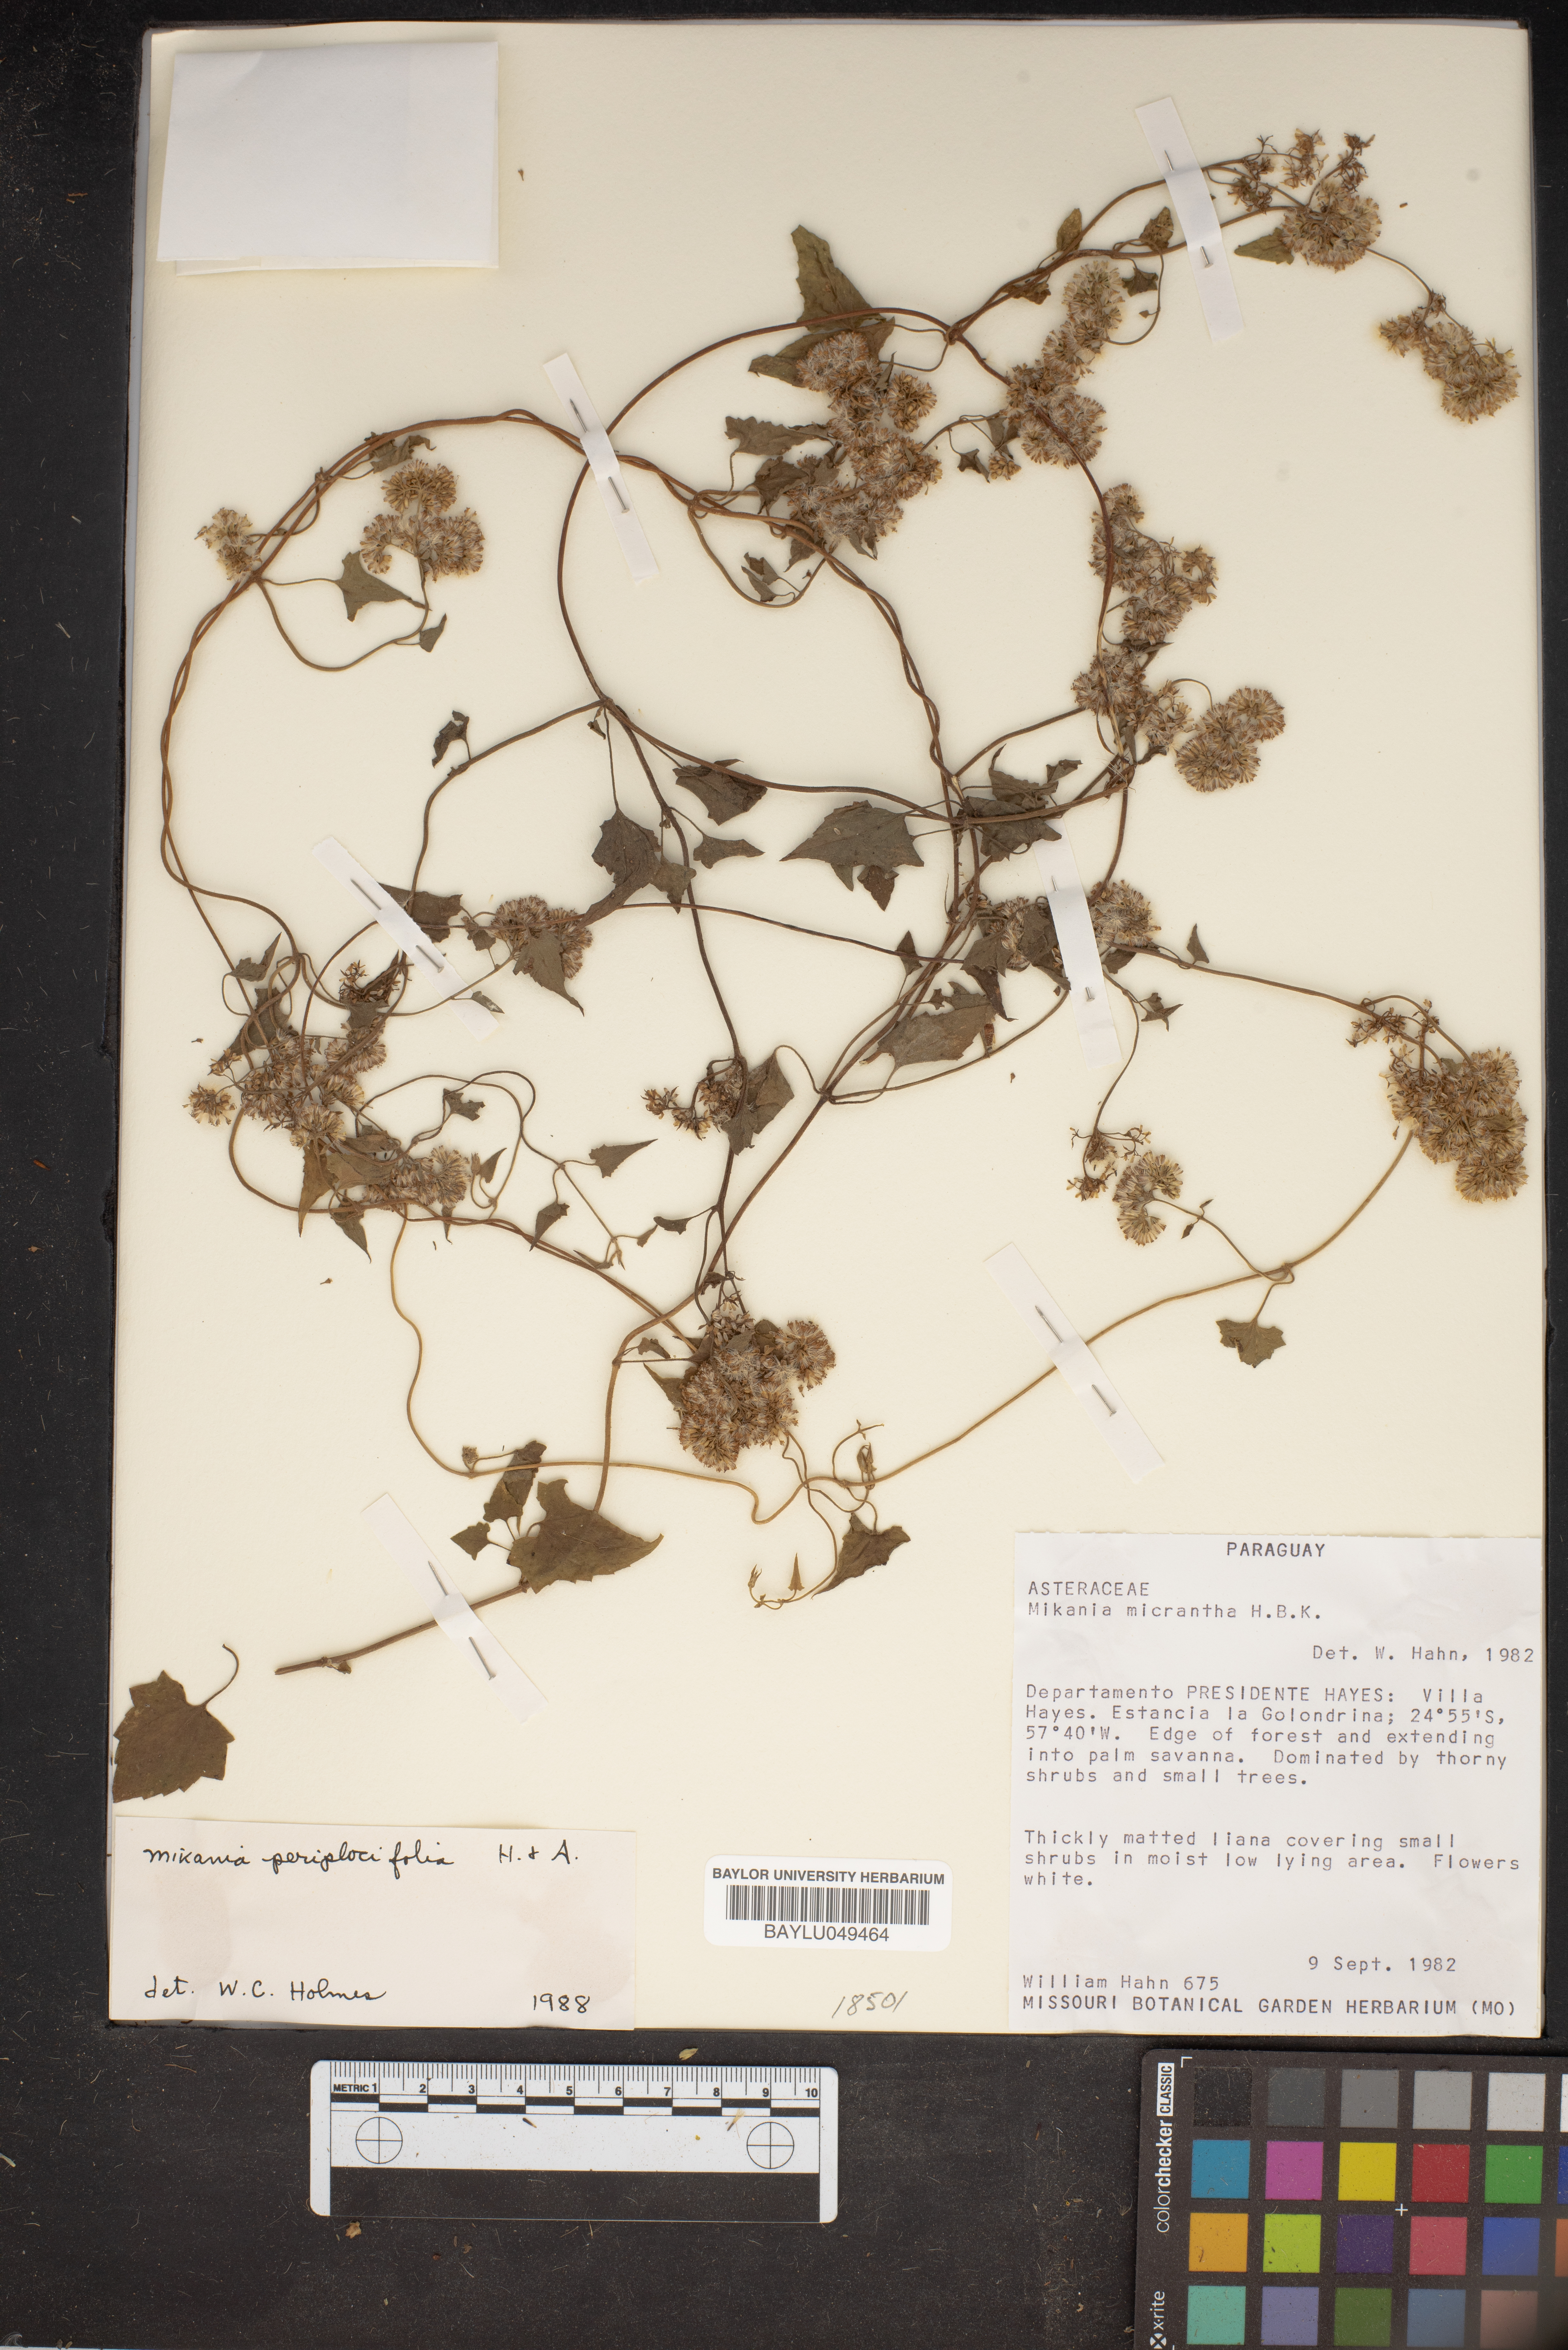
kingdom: Plantae
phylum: Tracheophyta
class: Magnoliopsida
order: Asterales
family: Asteraceae
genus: Mikania
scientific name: Mikania micrantha
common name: Mile-a-minute
